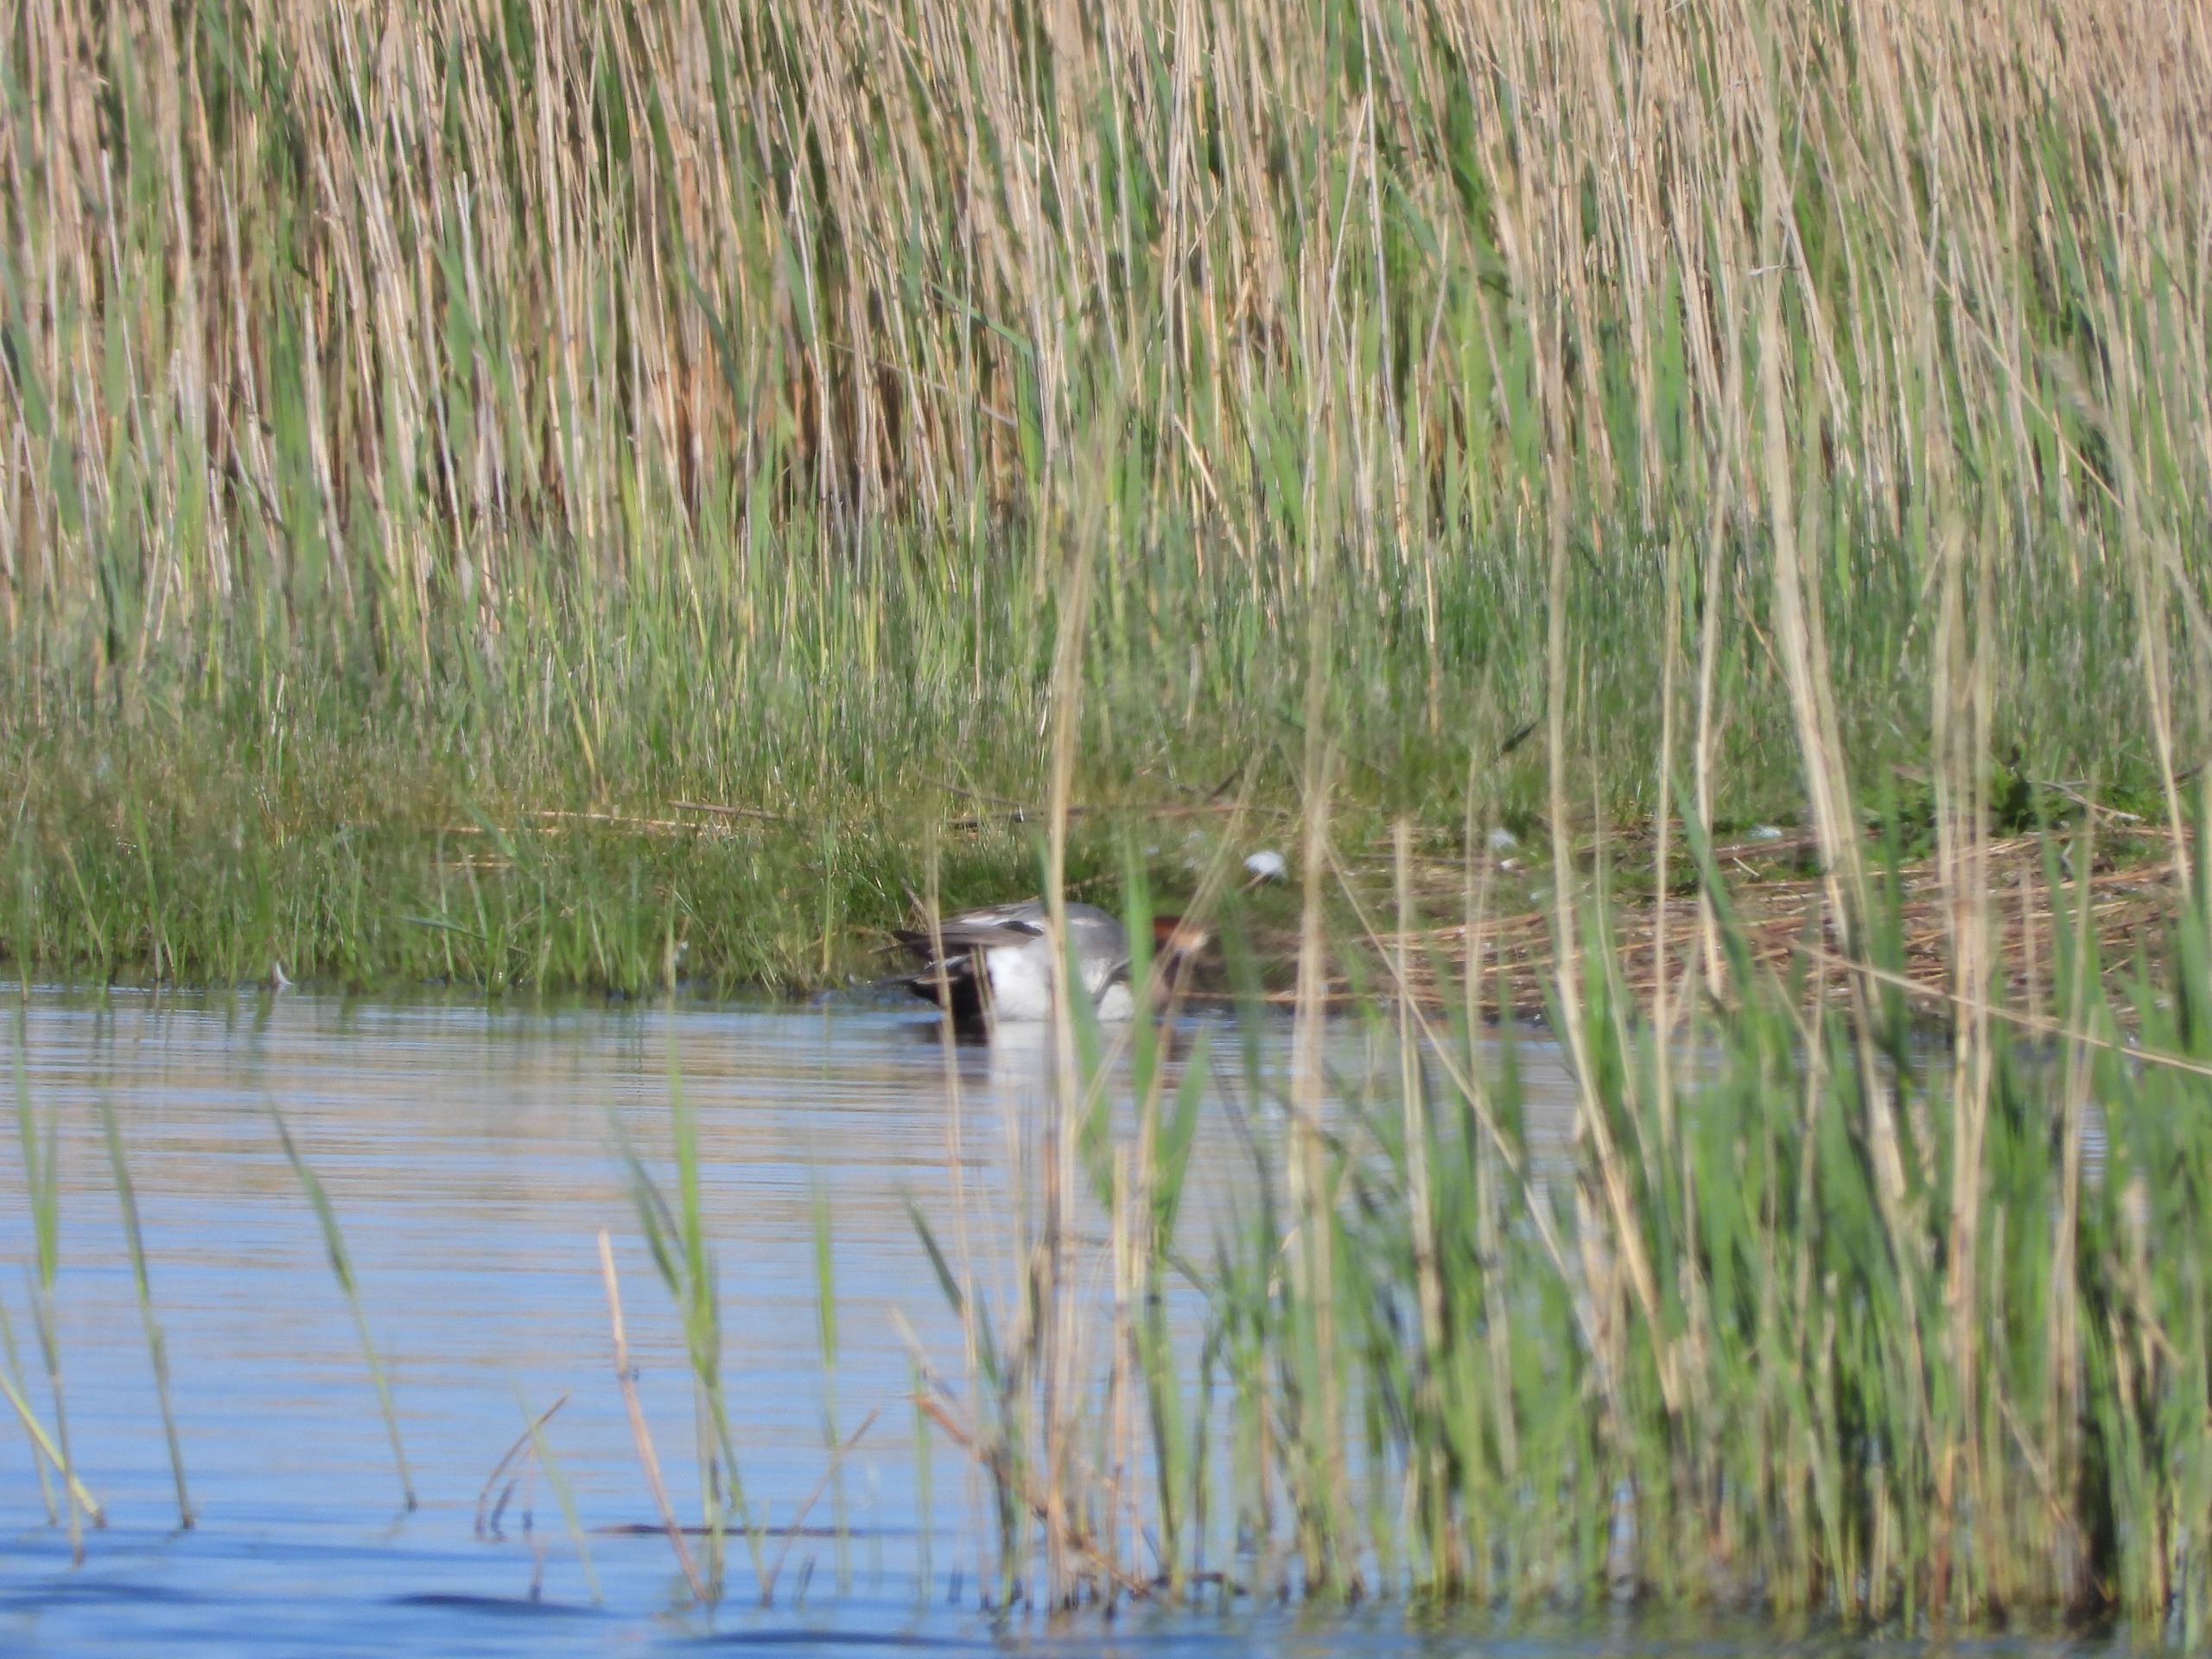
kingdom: Animalia
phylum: Chordata
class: Aves
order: Anseriformes
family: Anatidae
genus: Mareca
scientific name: Mareca penelope
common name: Pibeand
